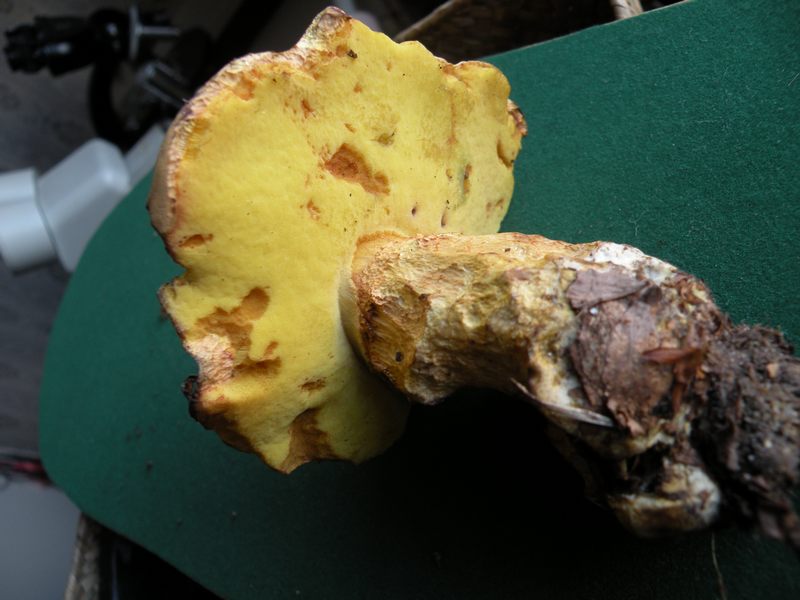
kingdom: Fungi
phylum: Basidiomycota
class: Agaricomycetes
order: Boletales
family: Boletaceae
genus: Butyriboletus
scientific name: Butyriboletus appendiculatus
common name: tenstokket rørhat
